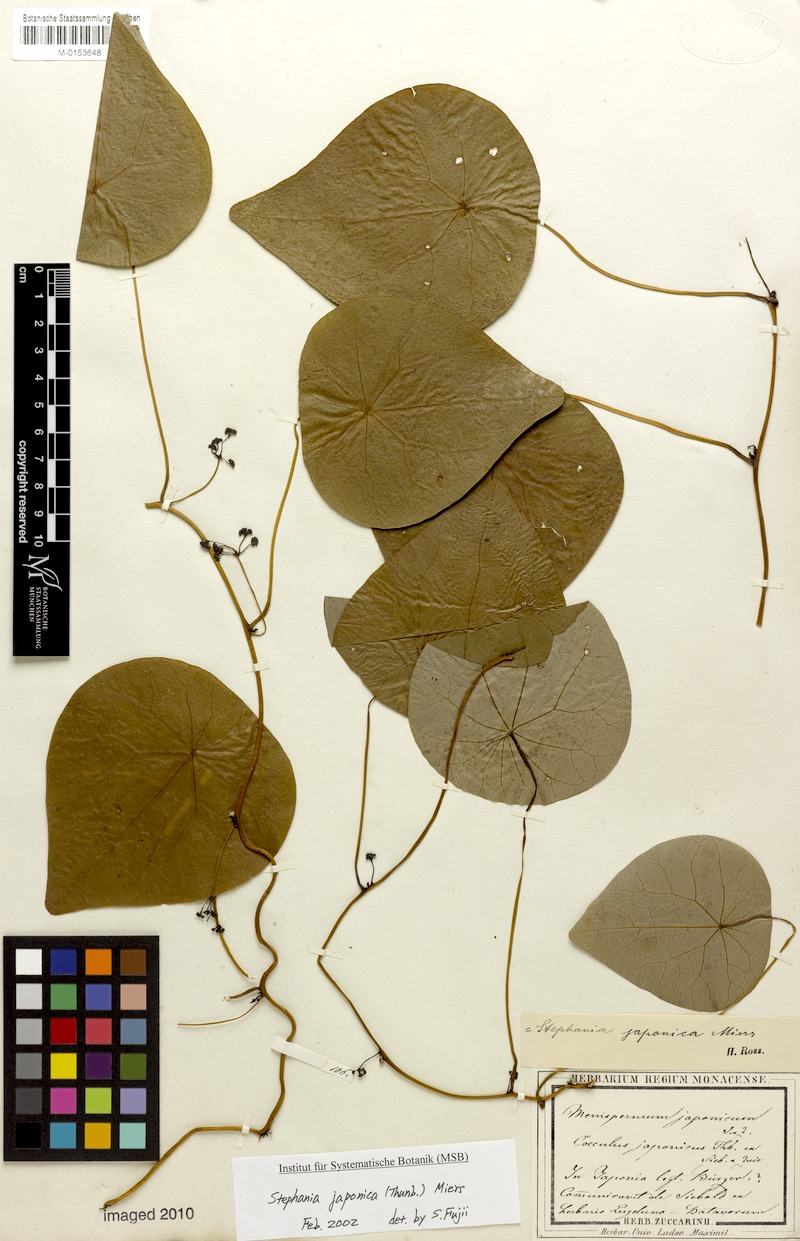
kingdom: Plantae
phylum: Tracheophyta
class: Magnoliopsida
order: Ranunculales
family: Menispermaceae
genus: Stephania
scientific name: Stephania japonica
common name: Snake vine
